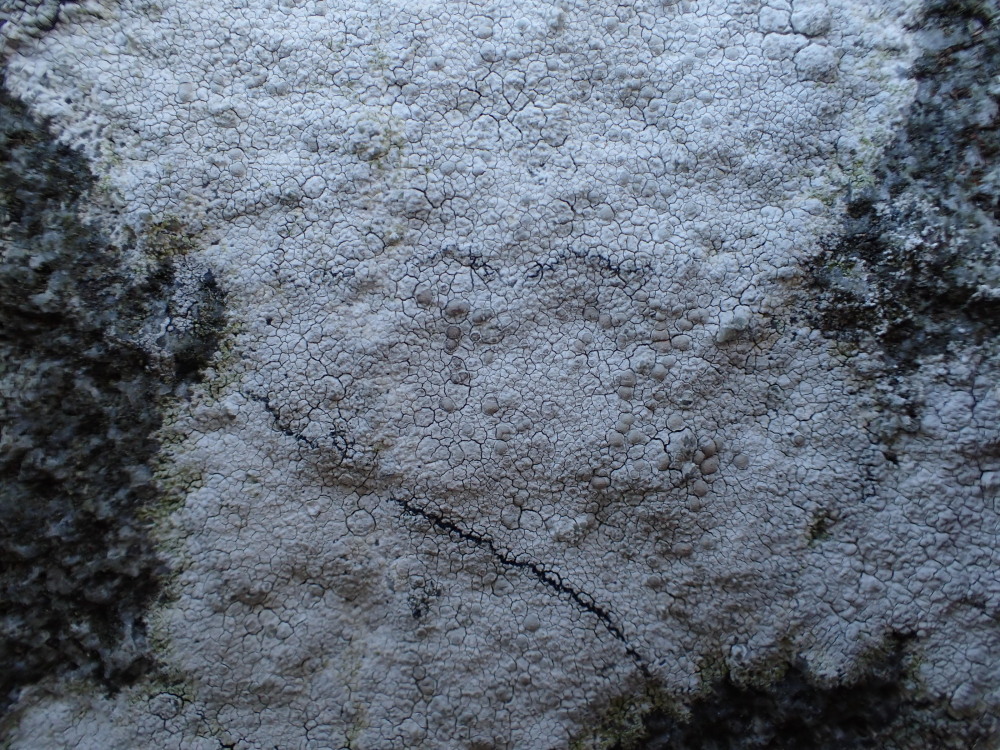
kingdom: Fungi
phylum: Ascomycota
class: Lecanoromycetes
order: Lecanorales
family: Lecanoraceae
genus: Glaucomaria
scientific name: Glaucomaria rupicola
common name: stengærde-kantskivelav
